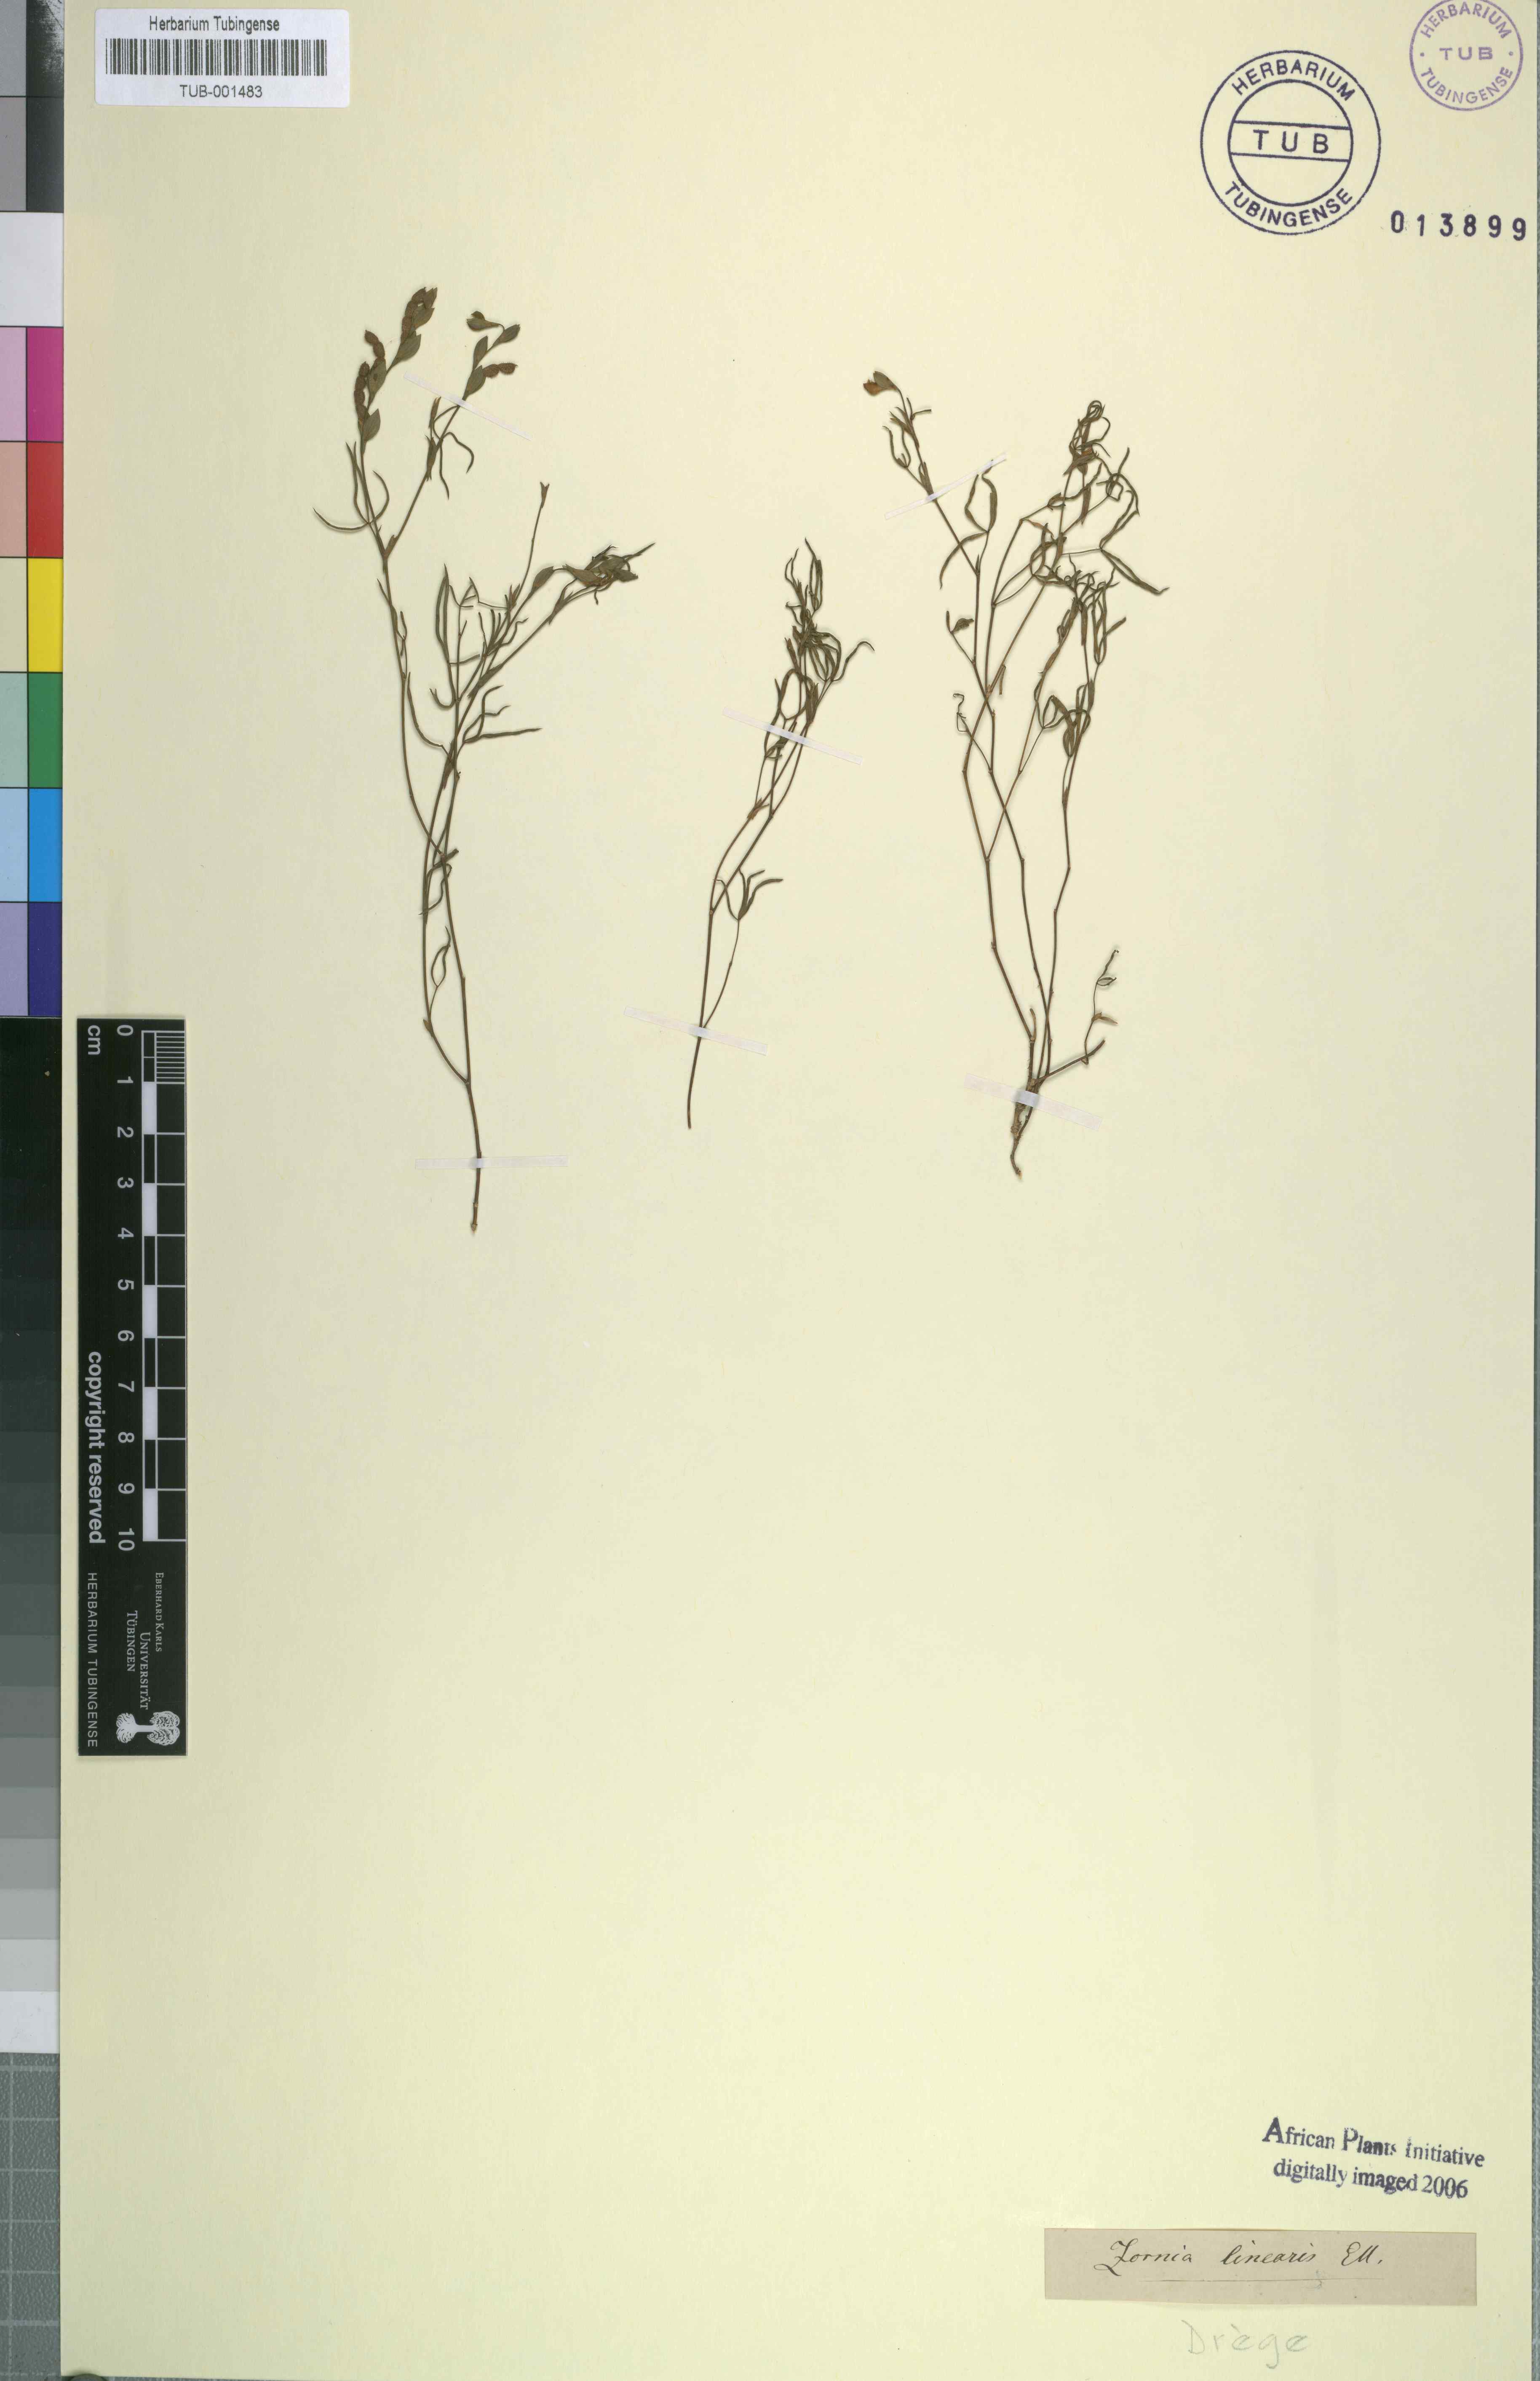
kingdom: Plantae
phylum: Tracheophyta
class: Magnoliopsida
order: Fabales
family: Fabaceae
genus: Zornia
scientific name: Zornia bracteata
